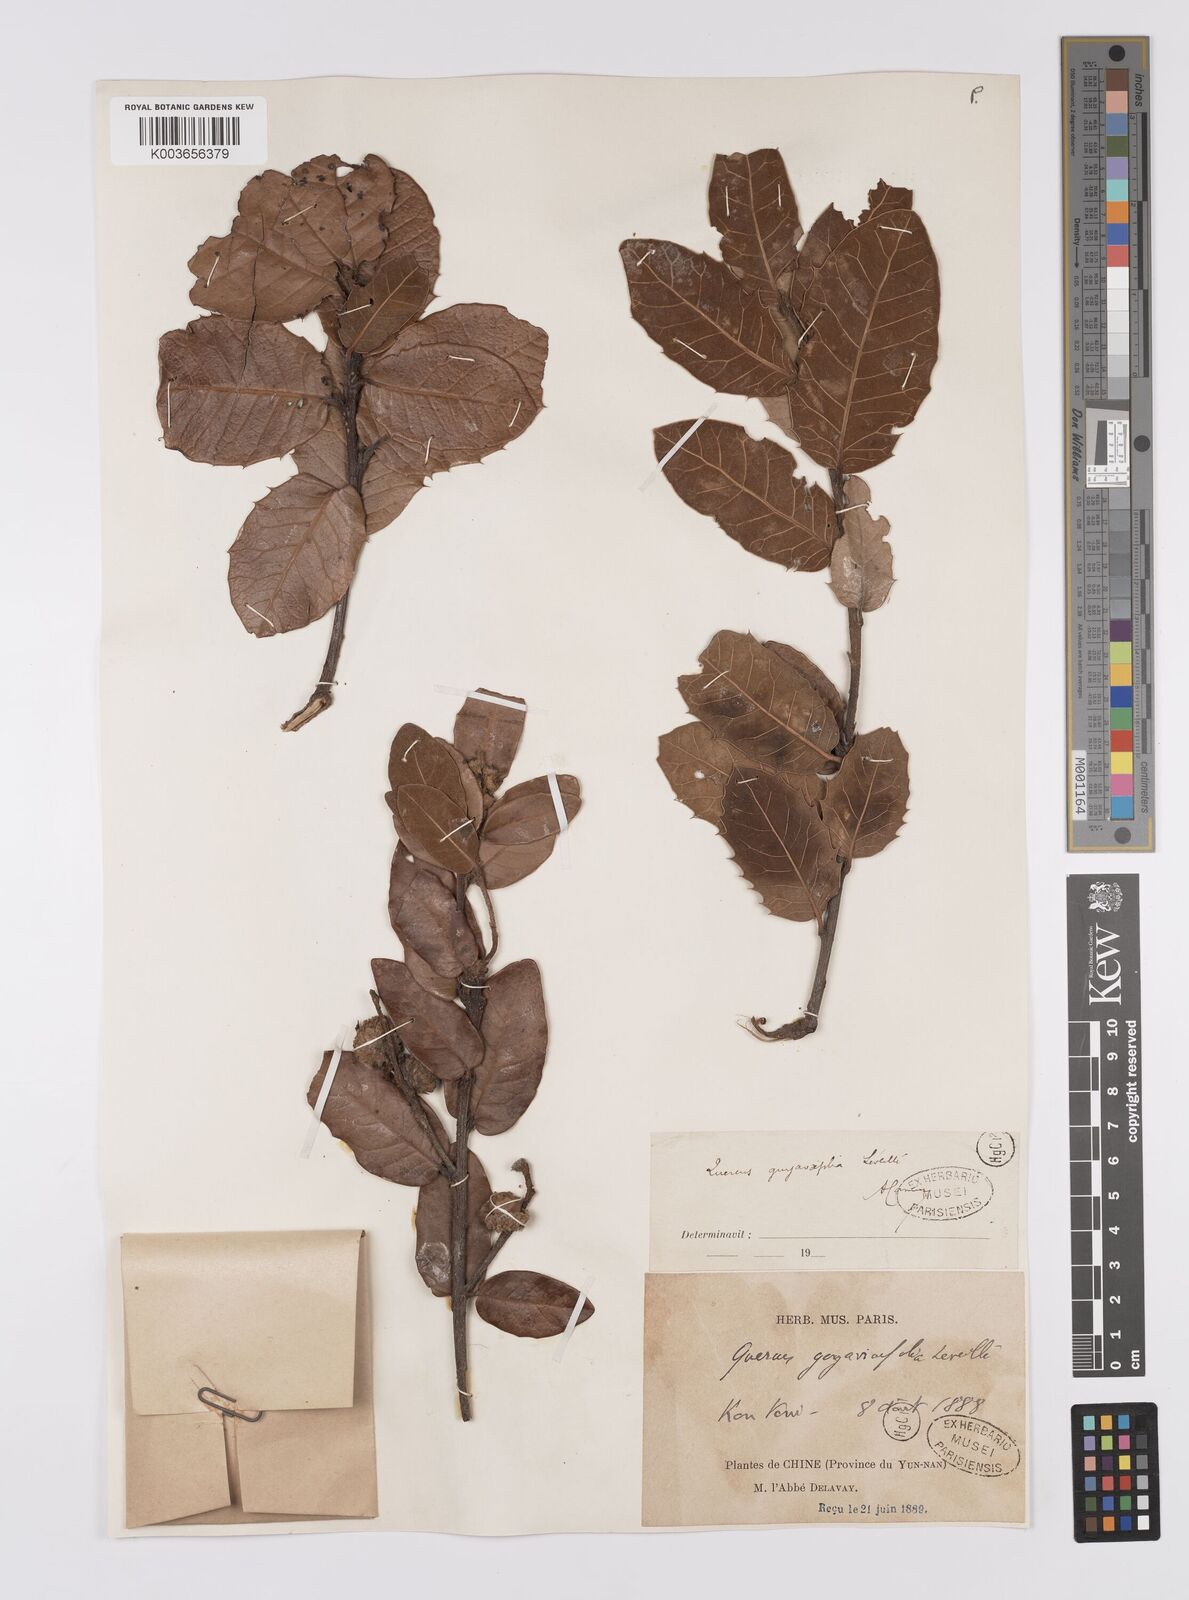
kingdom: Plantae
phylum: Tracheophyta
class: Magnoliopsida
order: Fagales
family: Fagaceae
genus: Quercus
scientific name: Quercus guyavifolia
